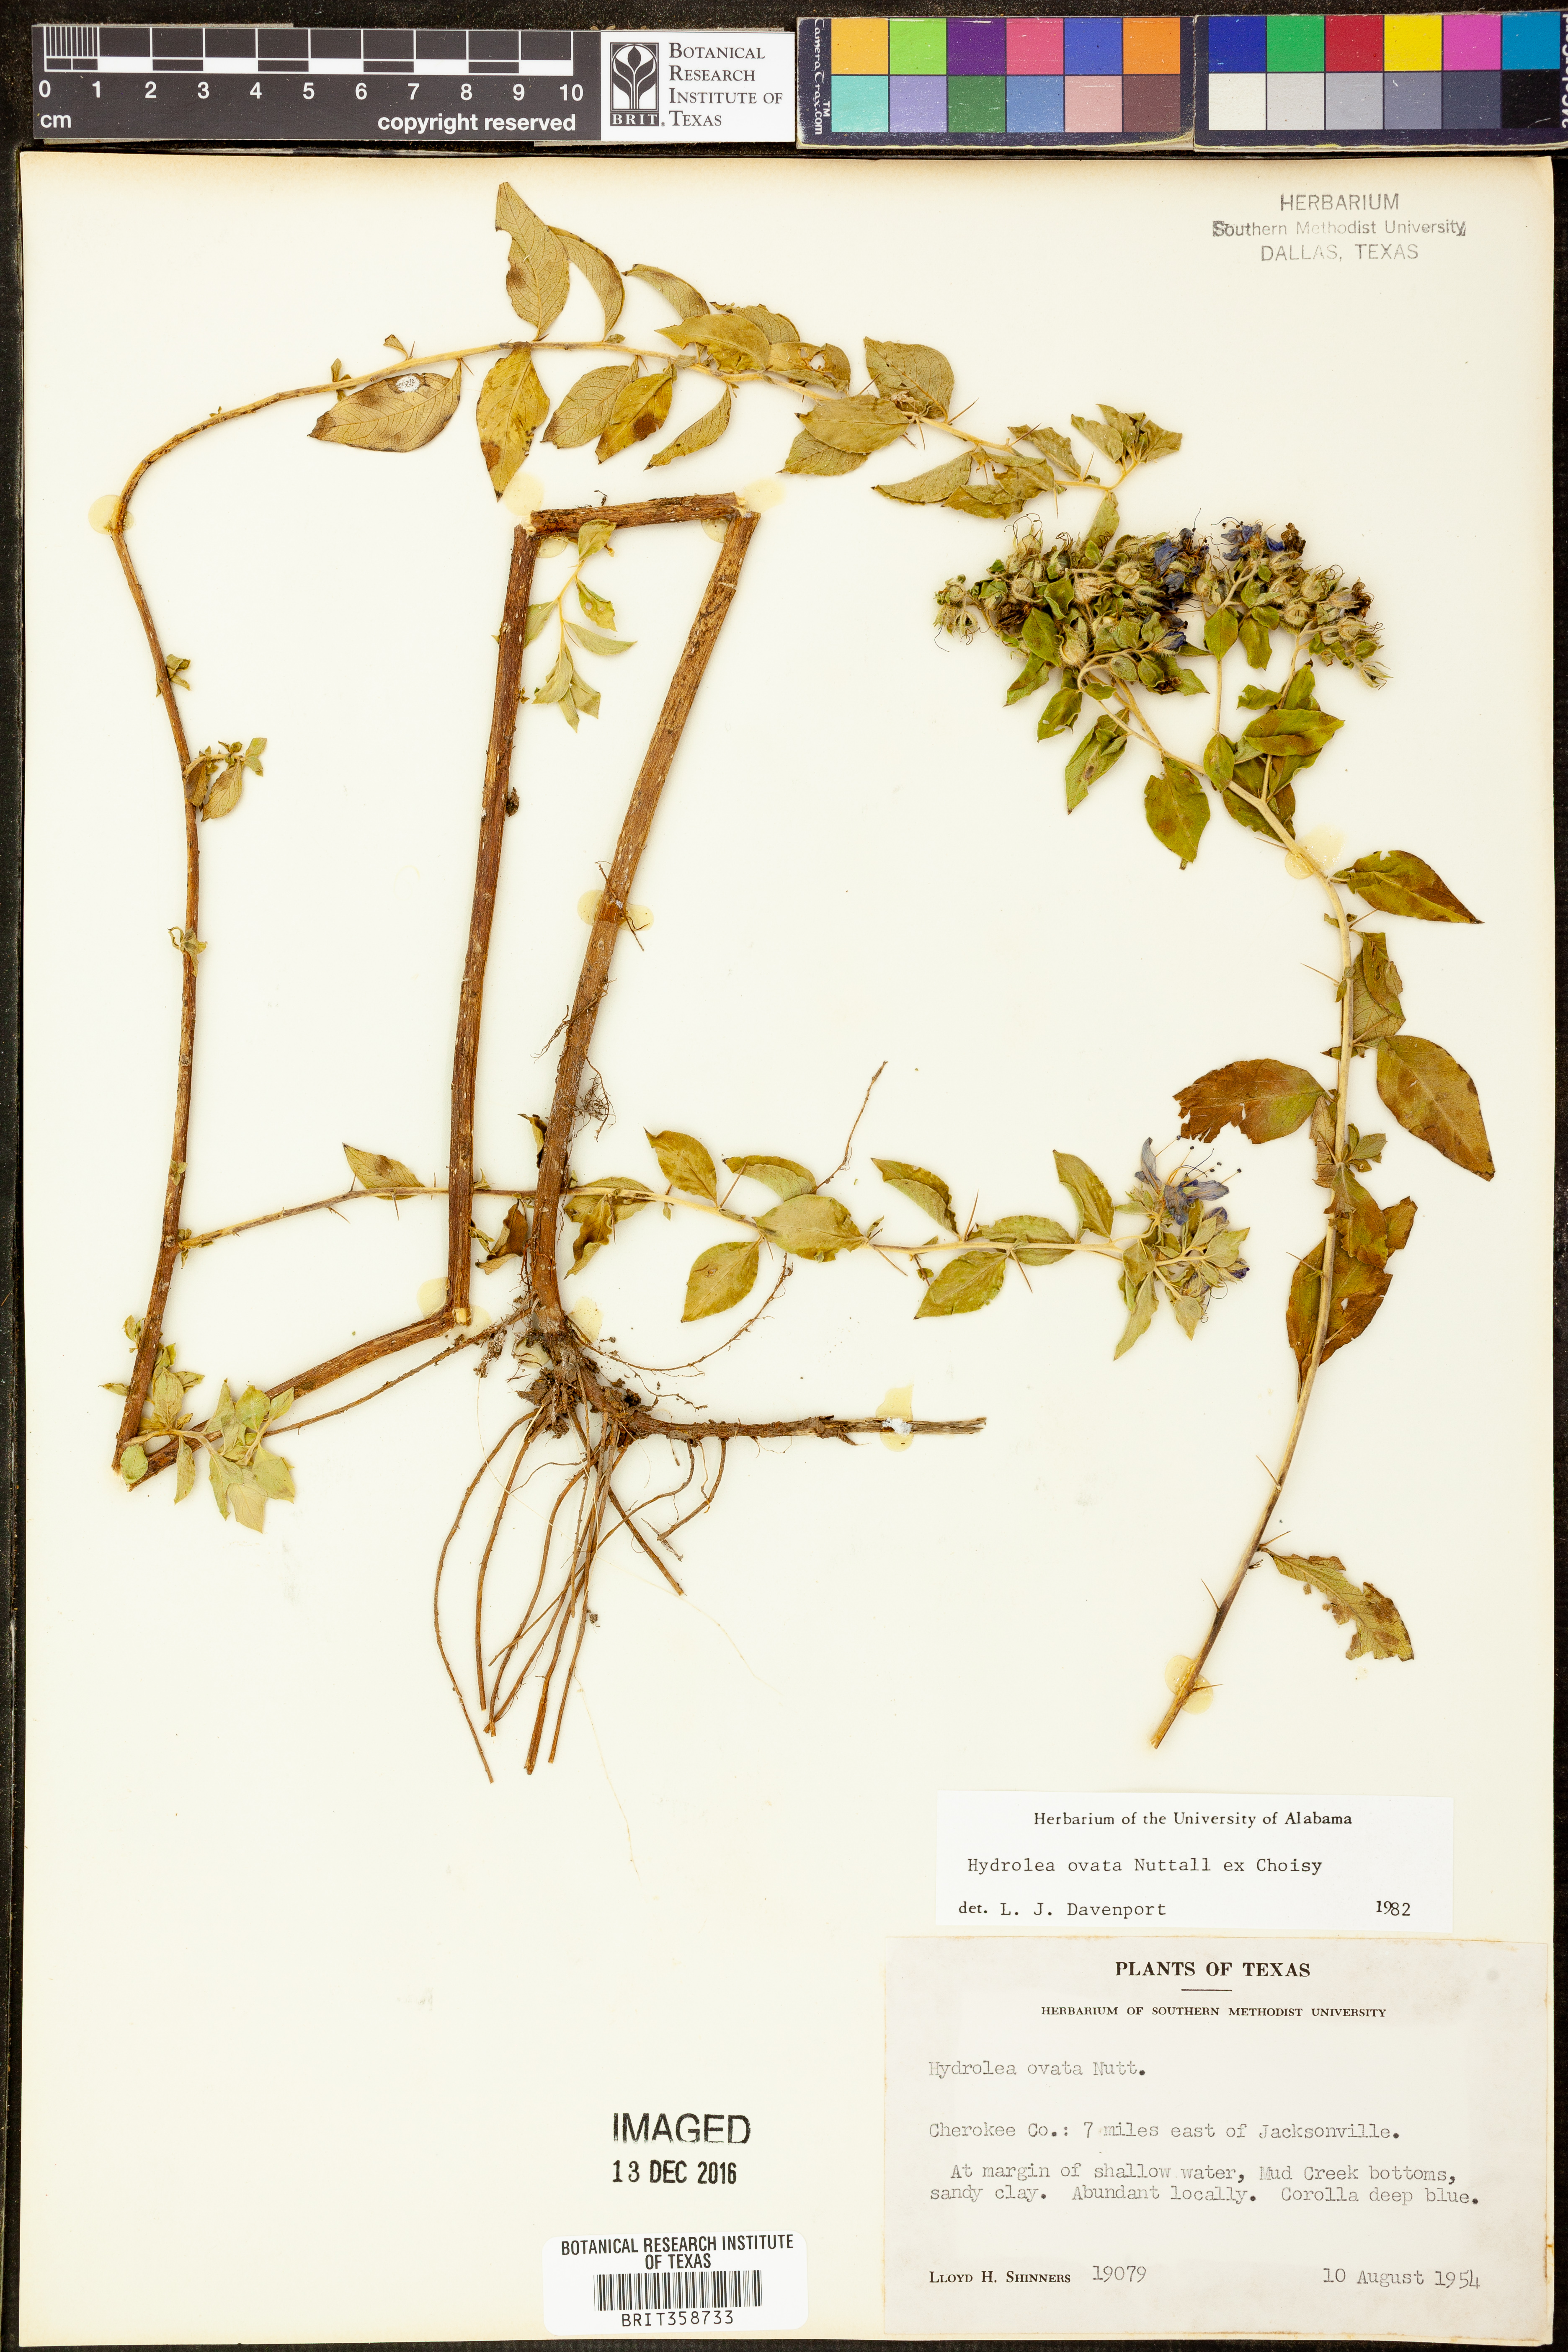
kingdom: Plantae
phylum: Tracheophyta
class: Magnoliopsida
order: Solanales
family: Hydroleaceae
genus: Hydrolea
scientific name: Hydrolea ovata
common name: Ovate false fiddleleaf
